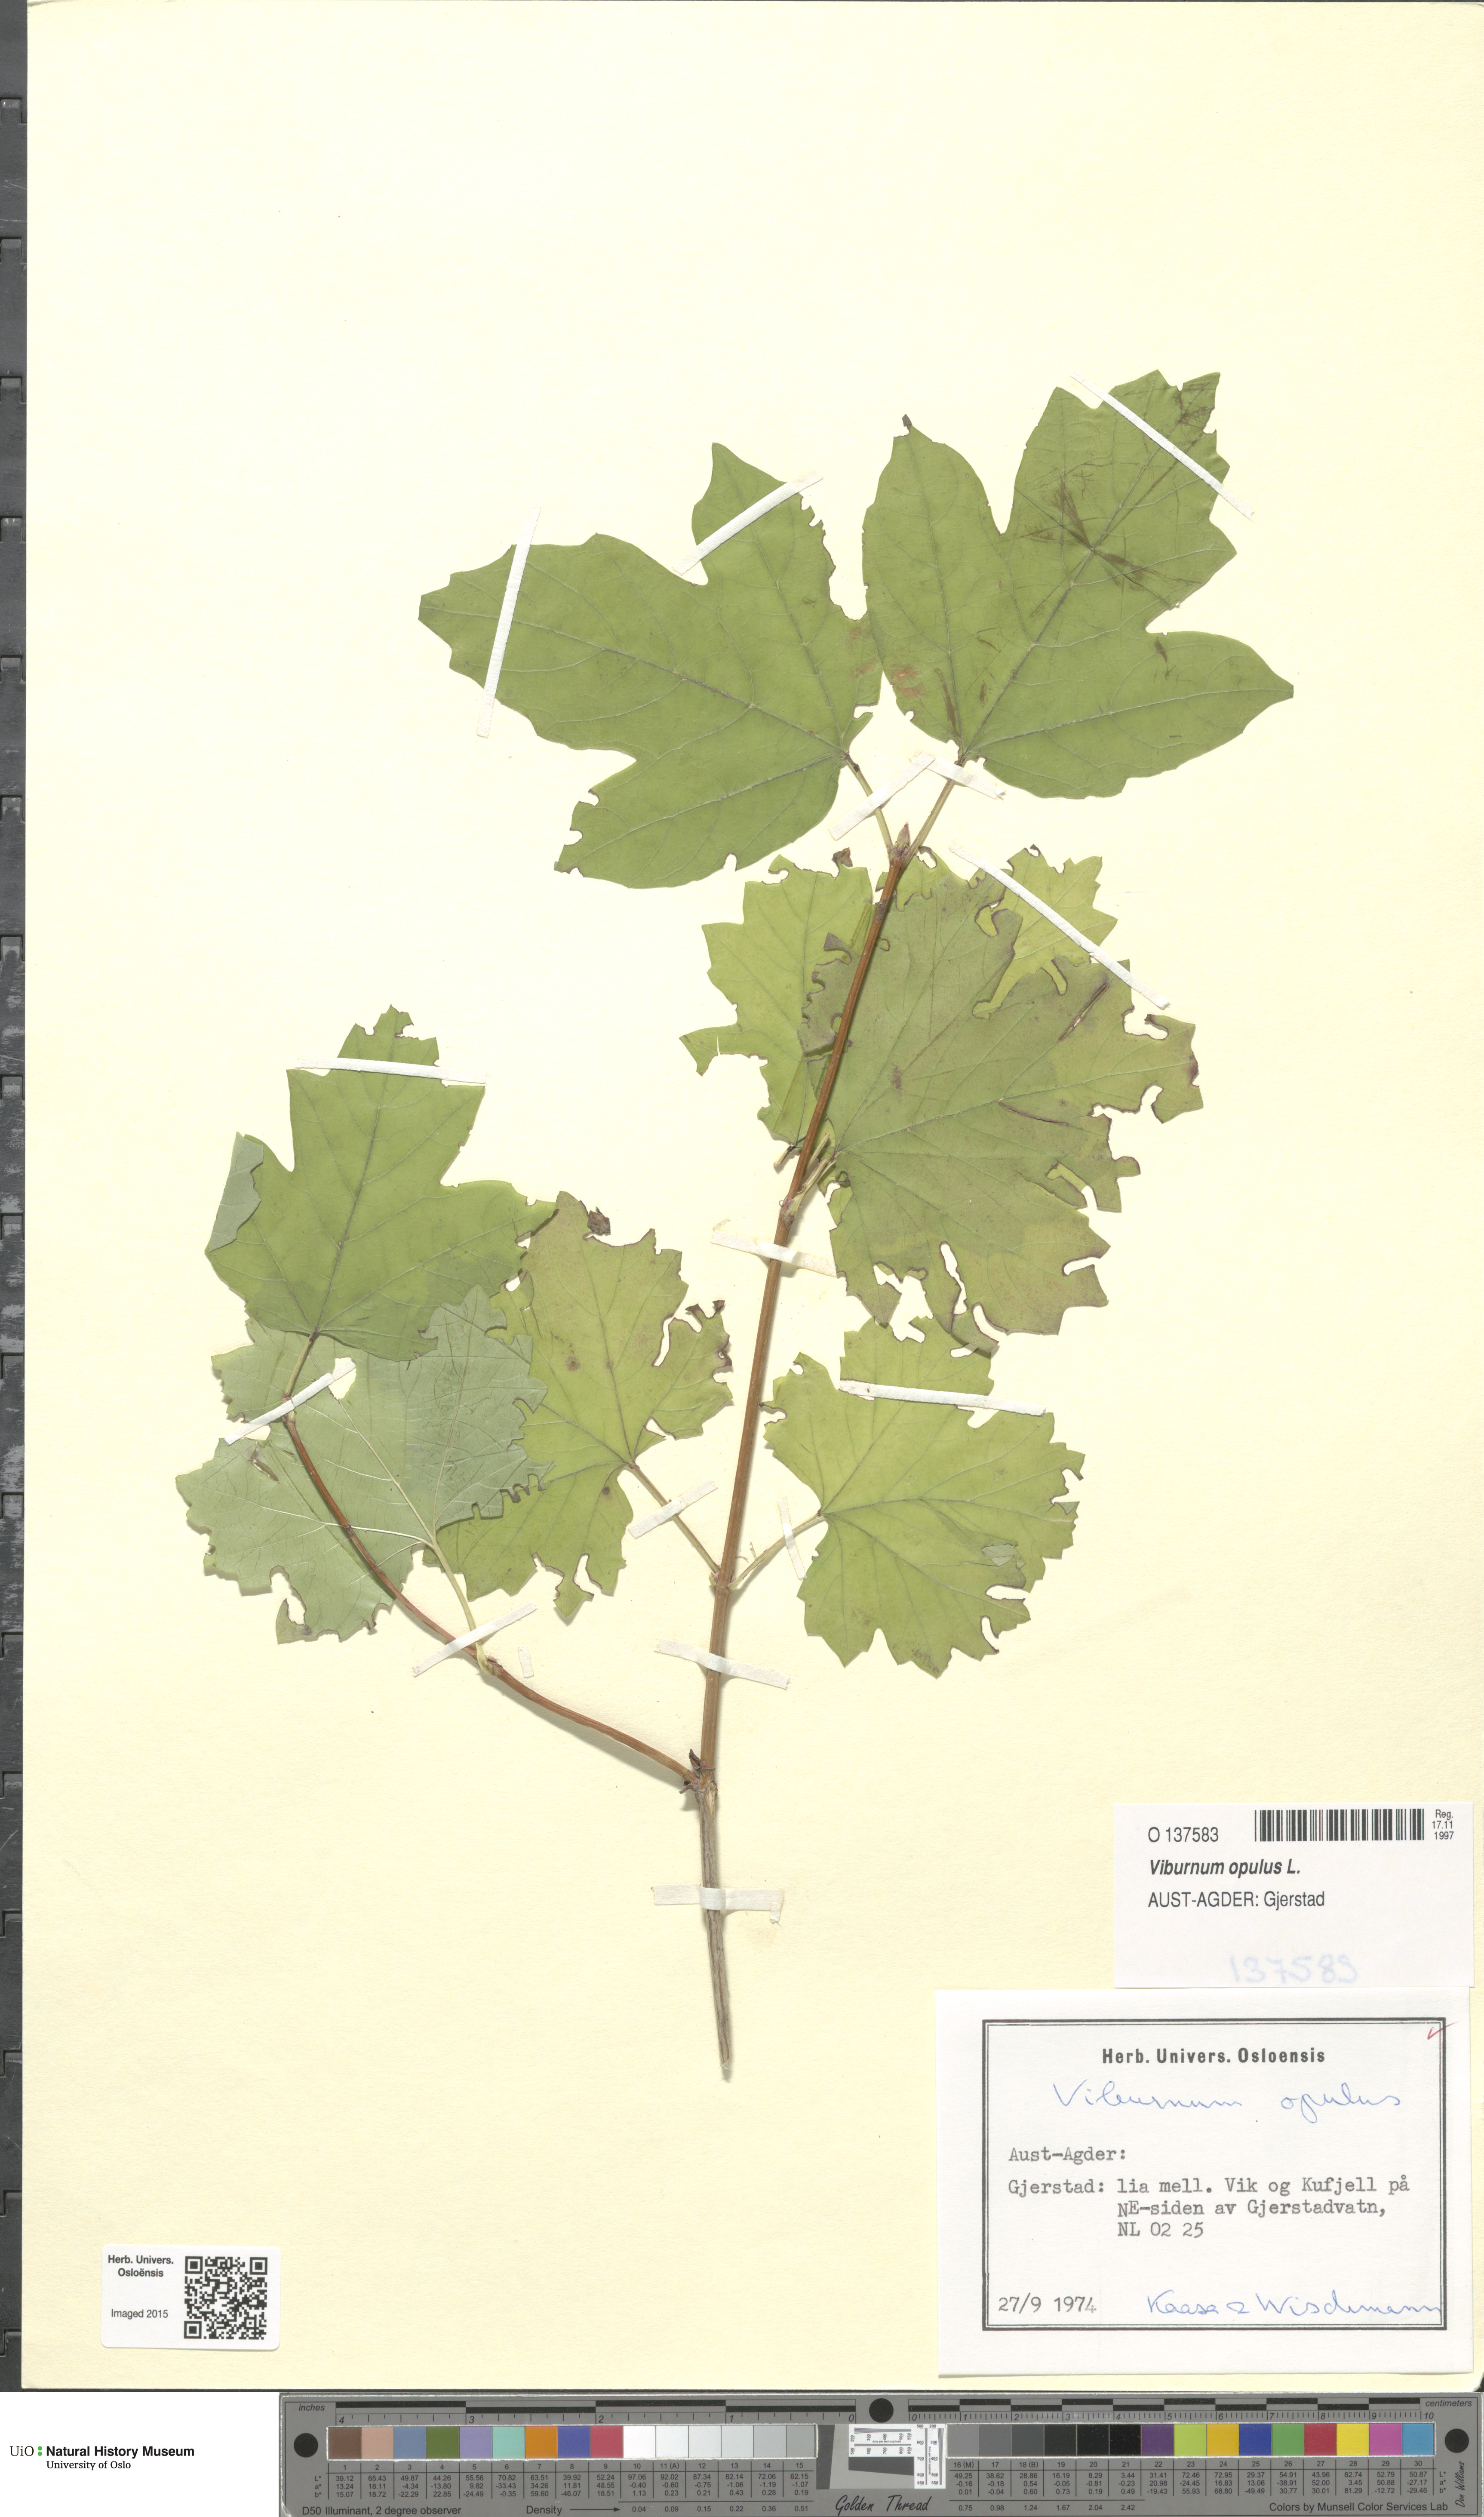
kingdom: Plantae
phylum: Tracheophyta
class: Magnoliopsida
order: Dipsacales
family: Viburnaceae
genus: Viburnum
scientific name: Viburnum opulus
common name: Guelder-rose
